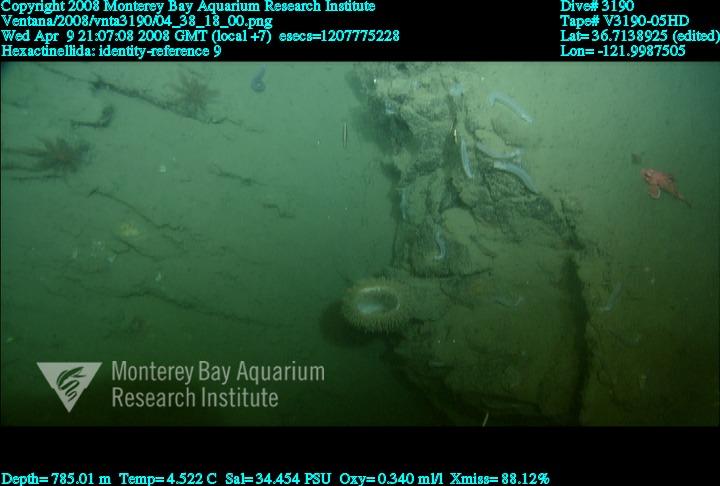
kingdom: Animalia
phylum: Porifera
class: Hexactinellida
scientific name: Hexactinellida
